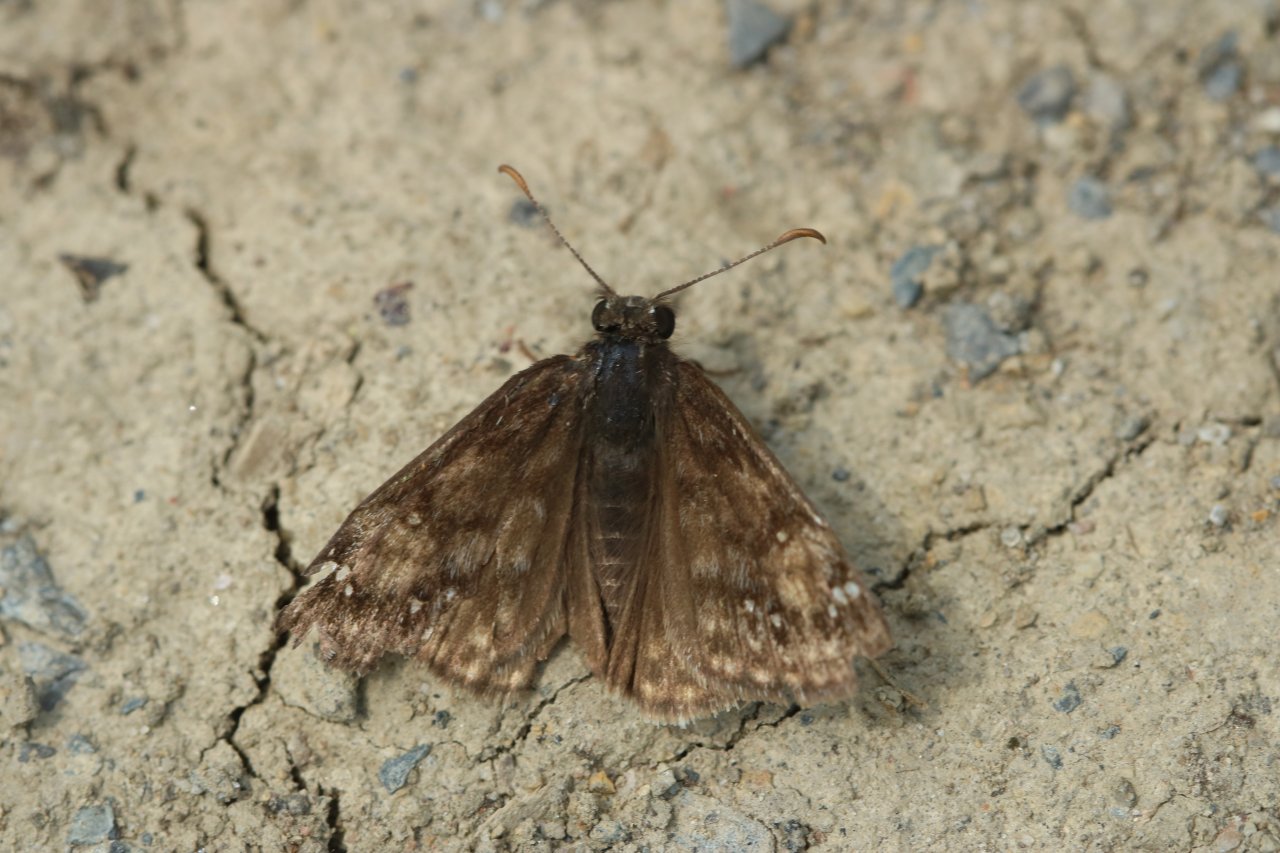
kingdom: Animalia
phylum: Arthropoda
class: Insecta
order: Lepidoptera
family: Hesperiidae
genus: Gesta
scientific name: Gesta
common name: Juvenal's Duskywing
